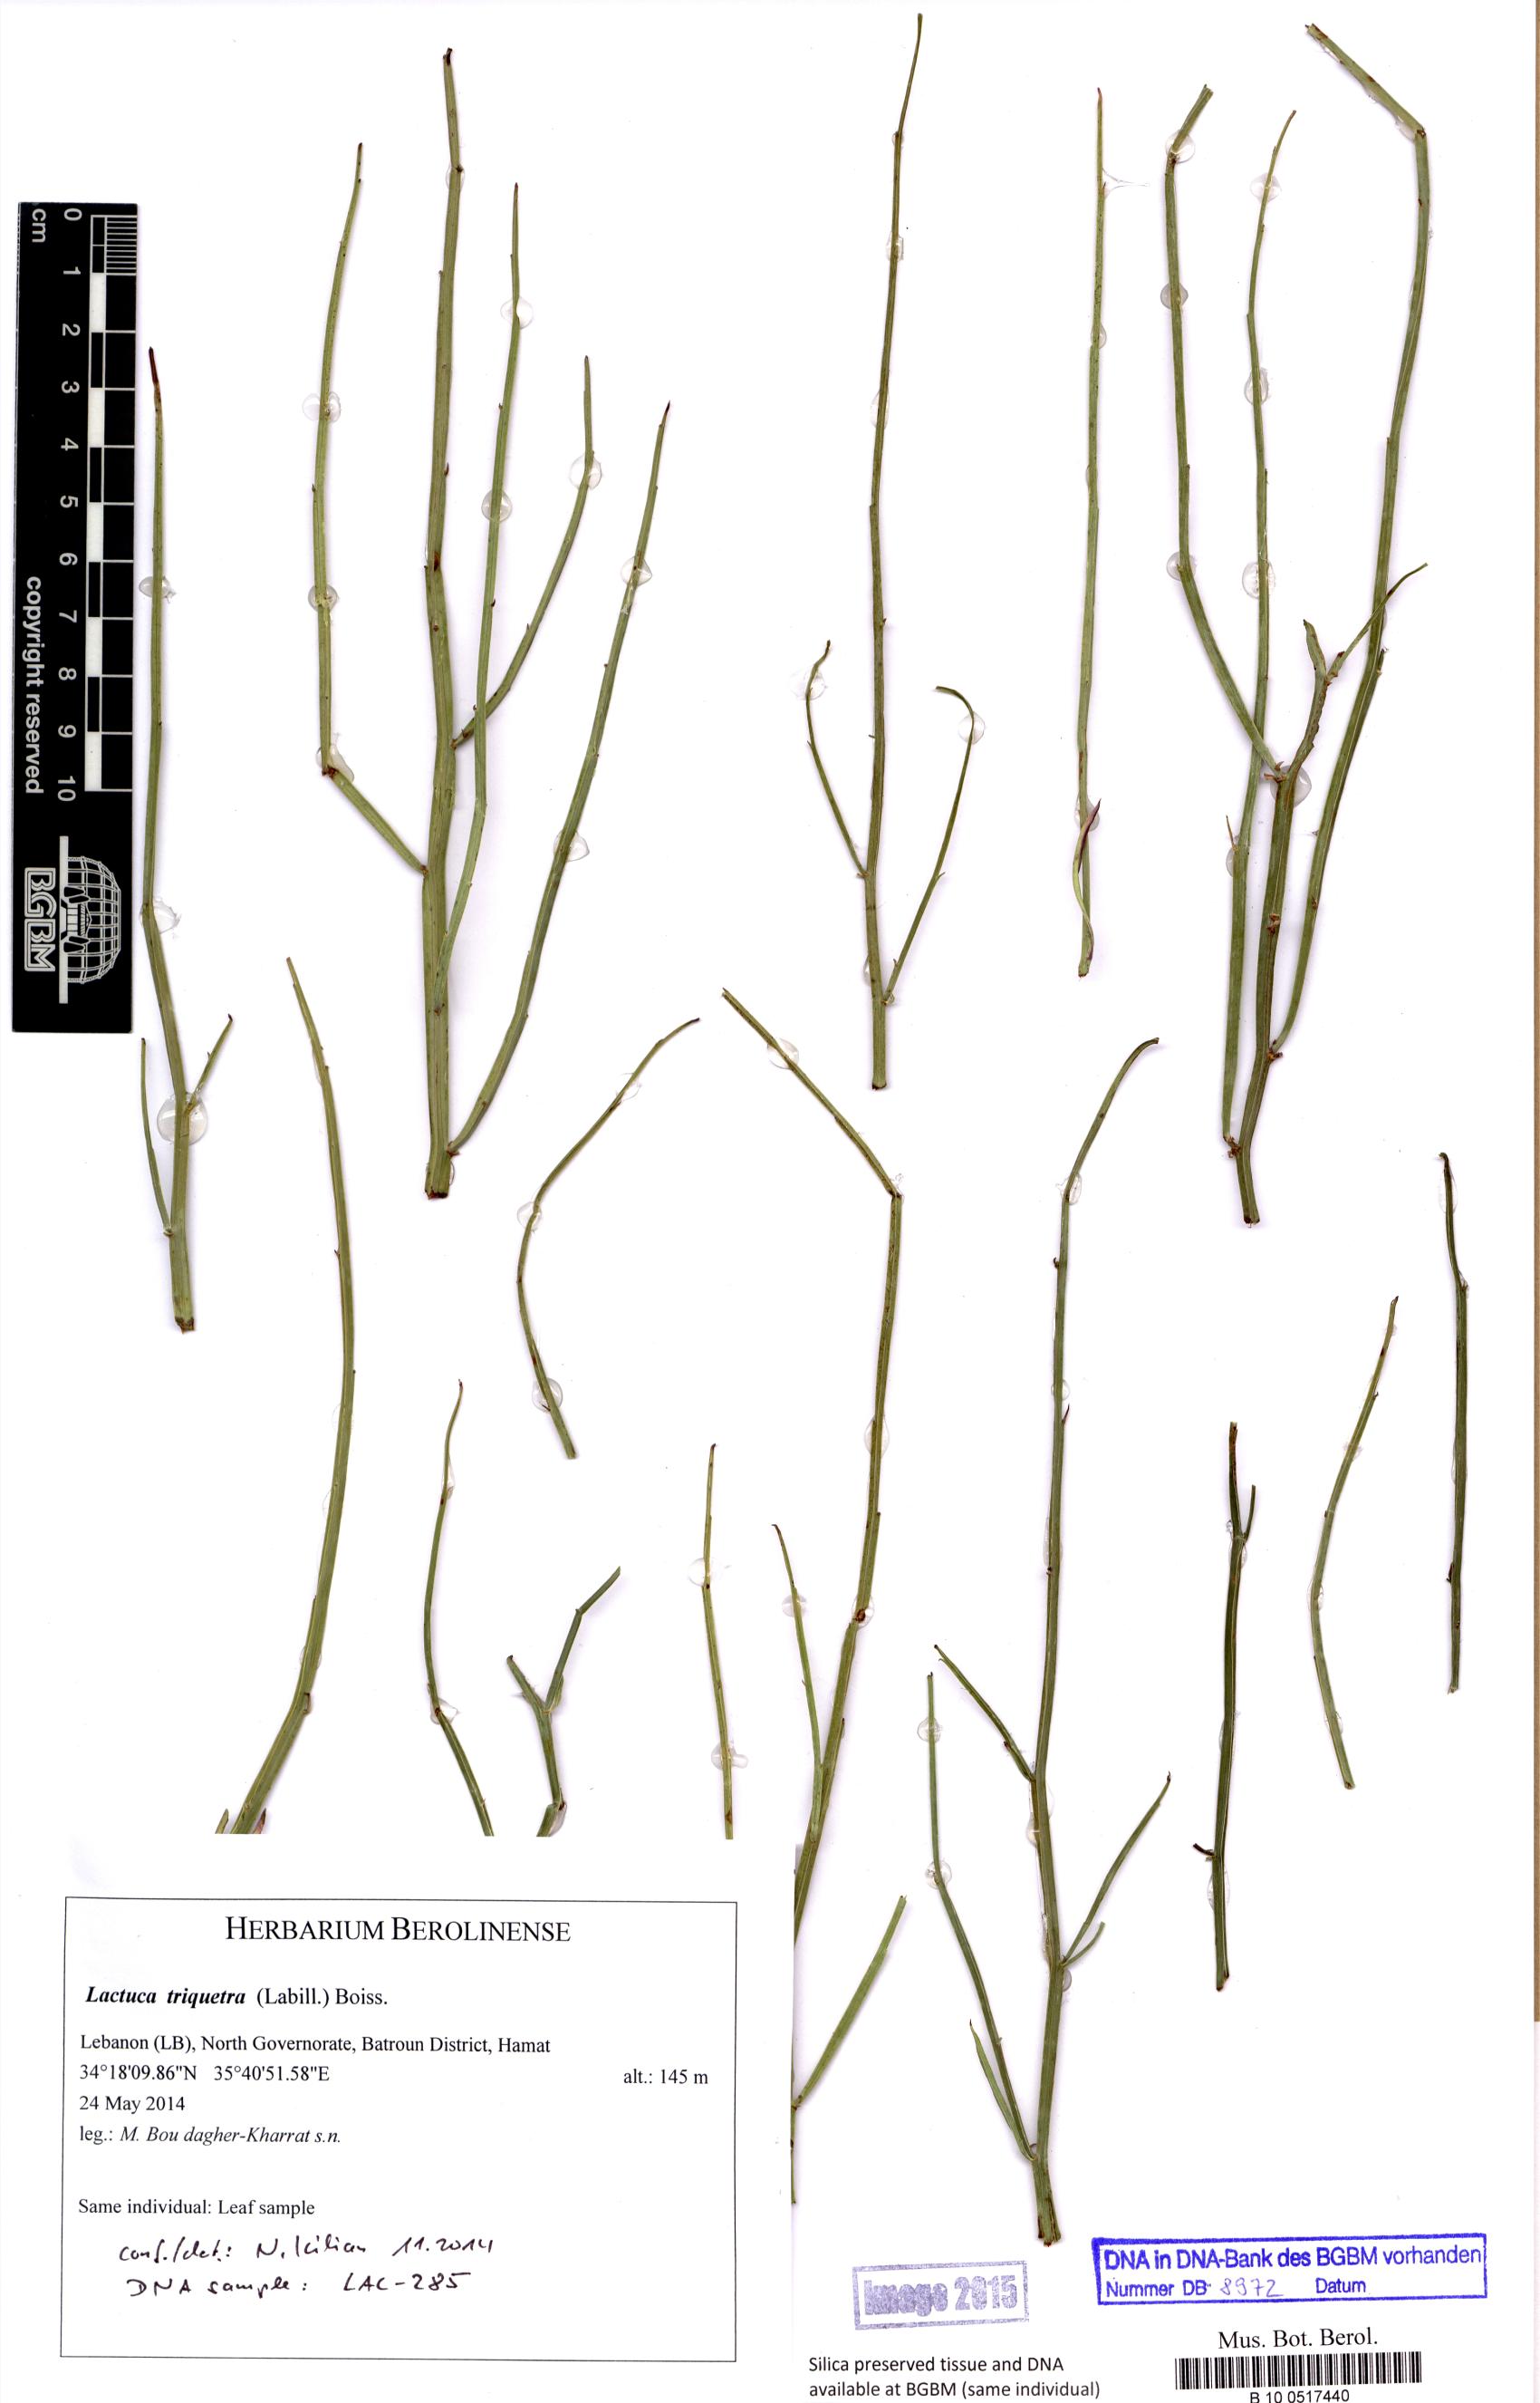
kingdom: Plantae
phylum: Tracheophyta
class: Magnoliopsida
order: Asterales
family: Asteraceae
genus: Astartoseris
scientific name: Astartoseris triquetra
